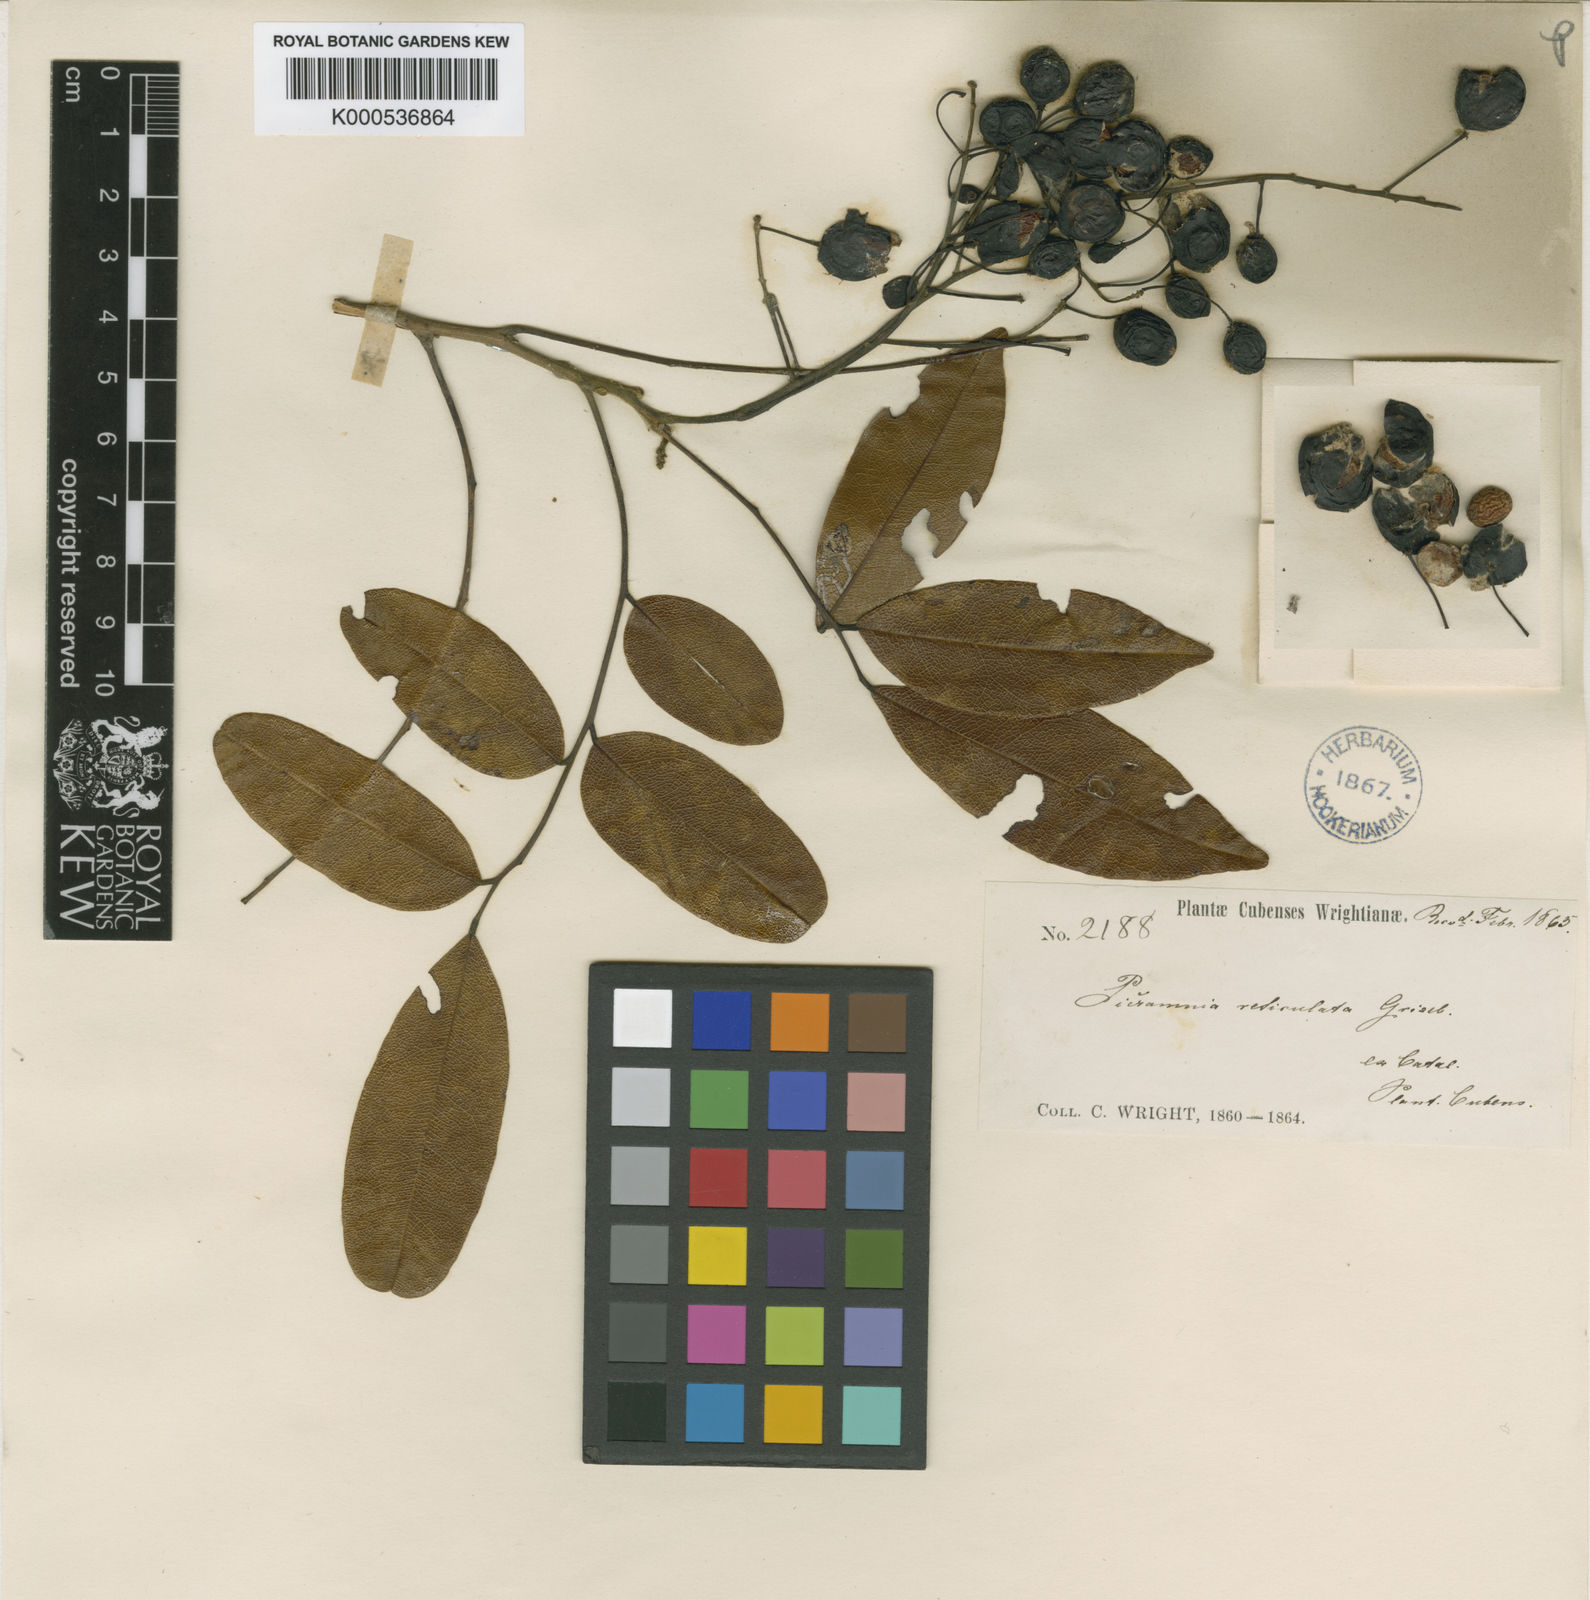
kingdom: Plantae
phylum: Tracheophyta
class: Magnoliopsida
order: Picramniales
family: Picramniaceae
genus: Picramnia
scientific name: Picramnia reticulata
